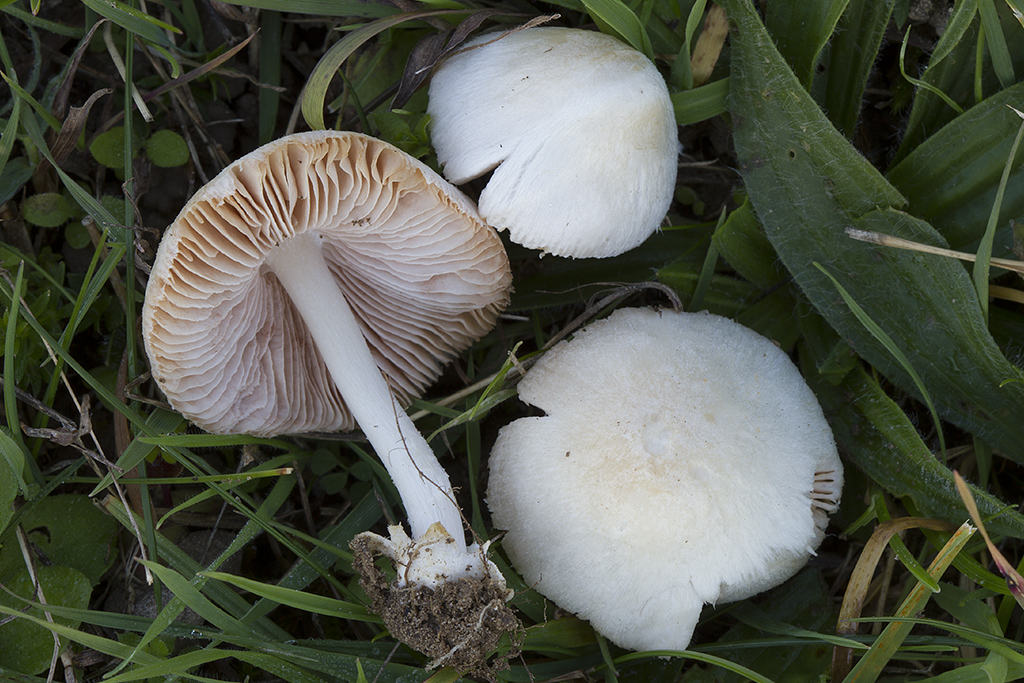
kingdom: Fungi
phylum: Basidiomycota
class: Agaricomycetes
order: Agaricales
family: Pluteaceae
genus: Volvariella
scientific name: Volvariella murinella
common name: musegrå posesvamp
